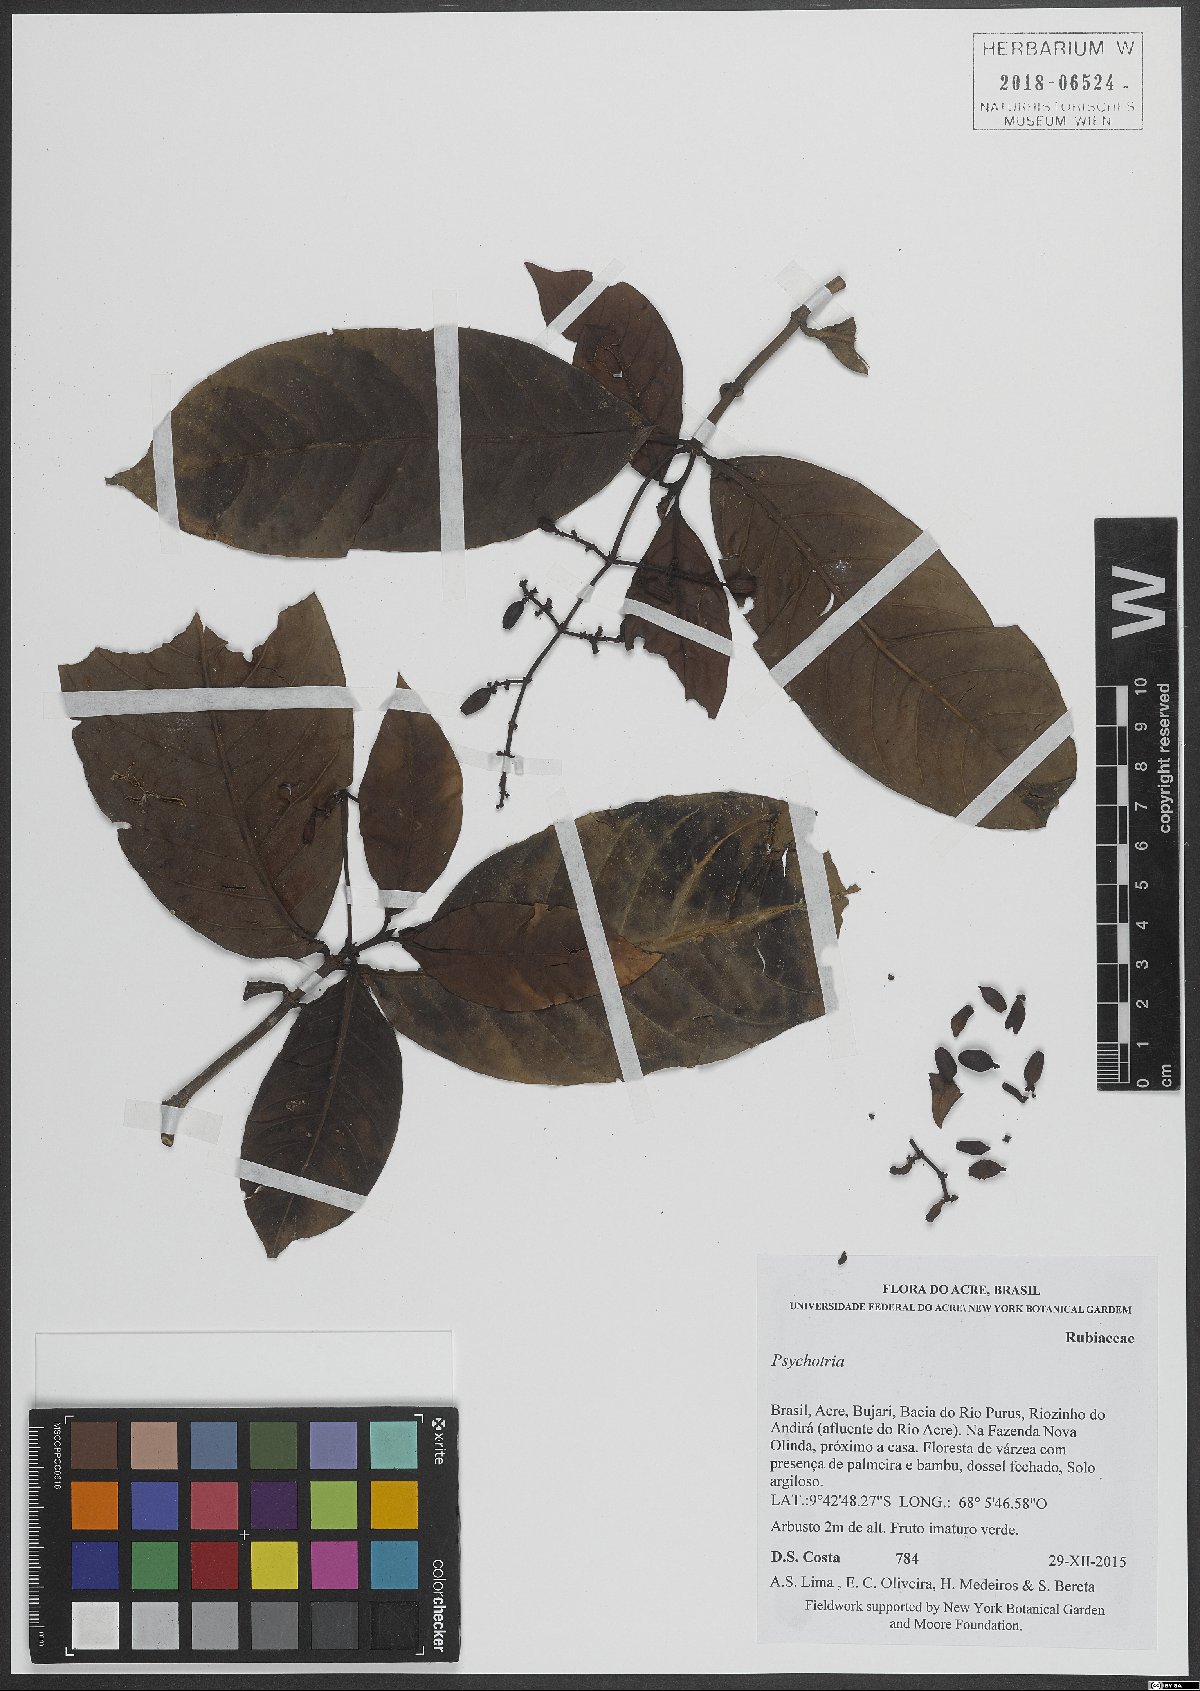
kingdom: Plantae
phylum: Tracheophyta
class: Magnoliopsida
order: Gentianales
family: Rubiaceae
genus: Psychotria
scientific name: Psychotria
